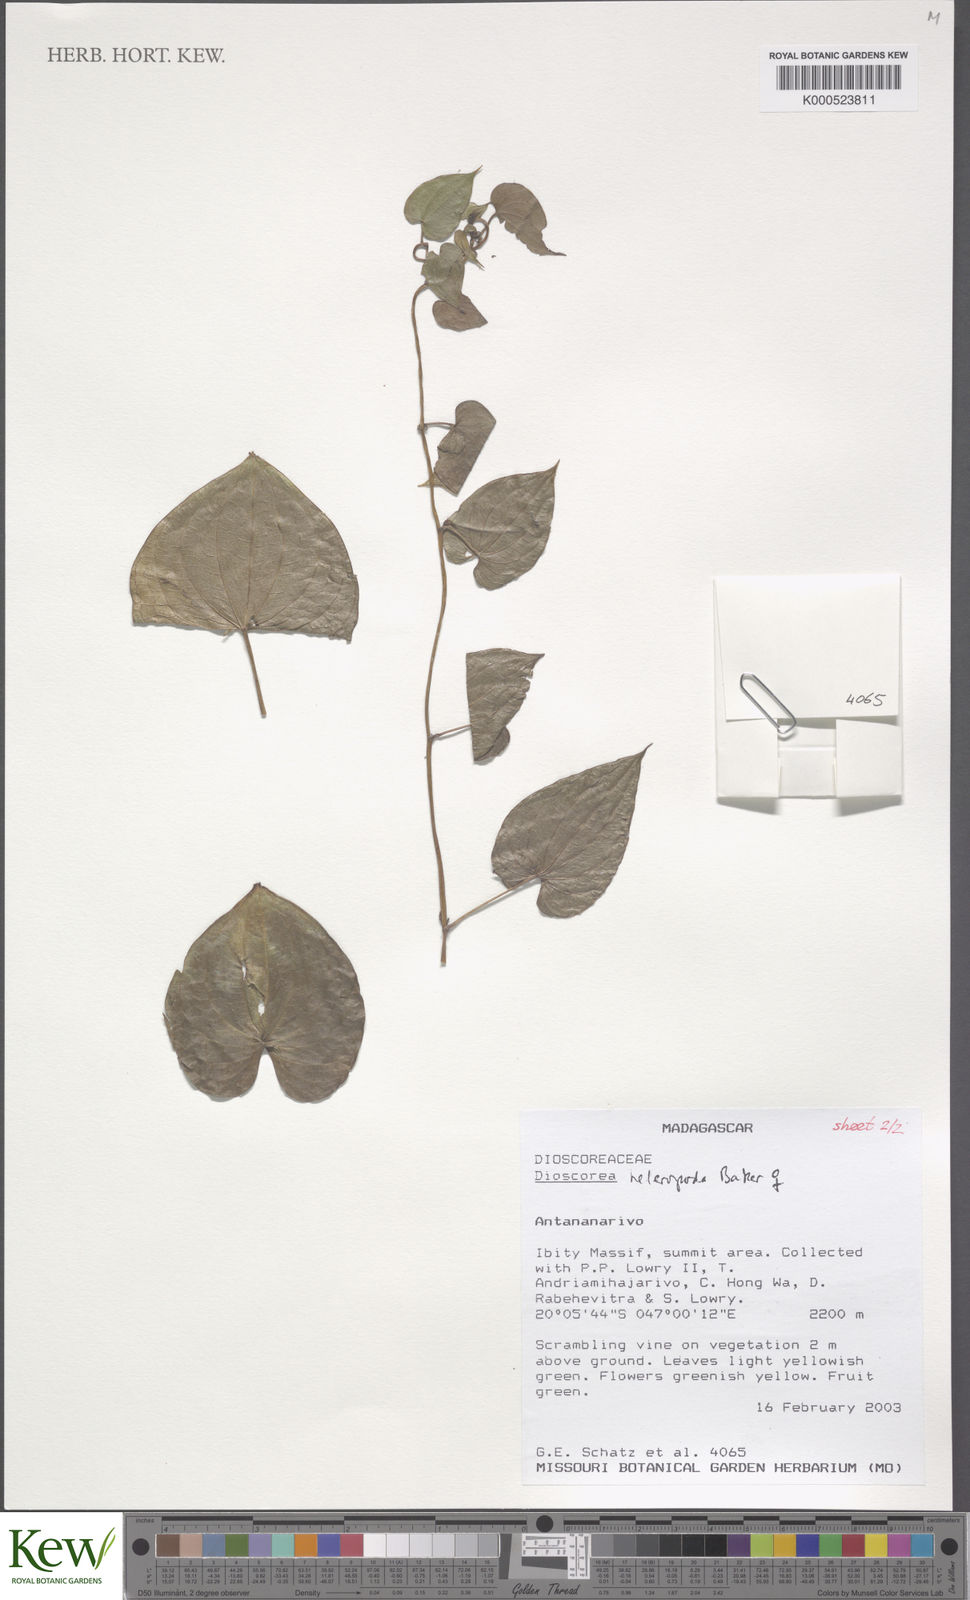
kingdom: Plantae
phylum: Tracheophyta
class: Liliopsida
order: Dioscoreales
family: Dioscoreaceae
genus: Dioscorea
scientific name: Dioscorea heteropoda
